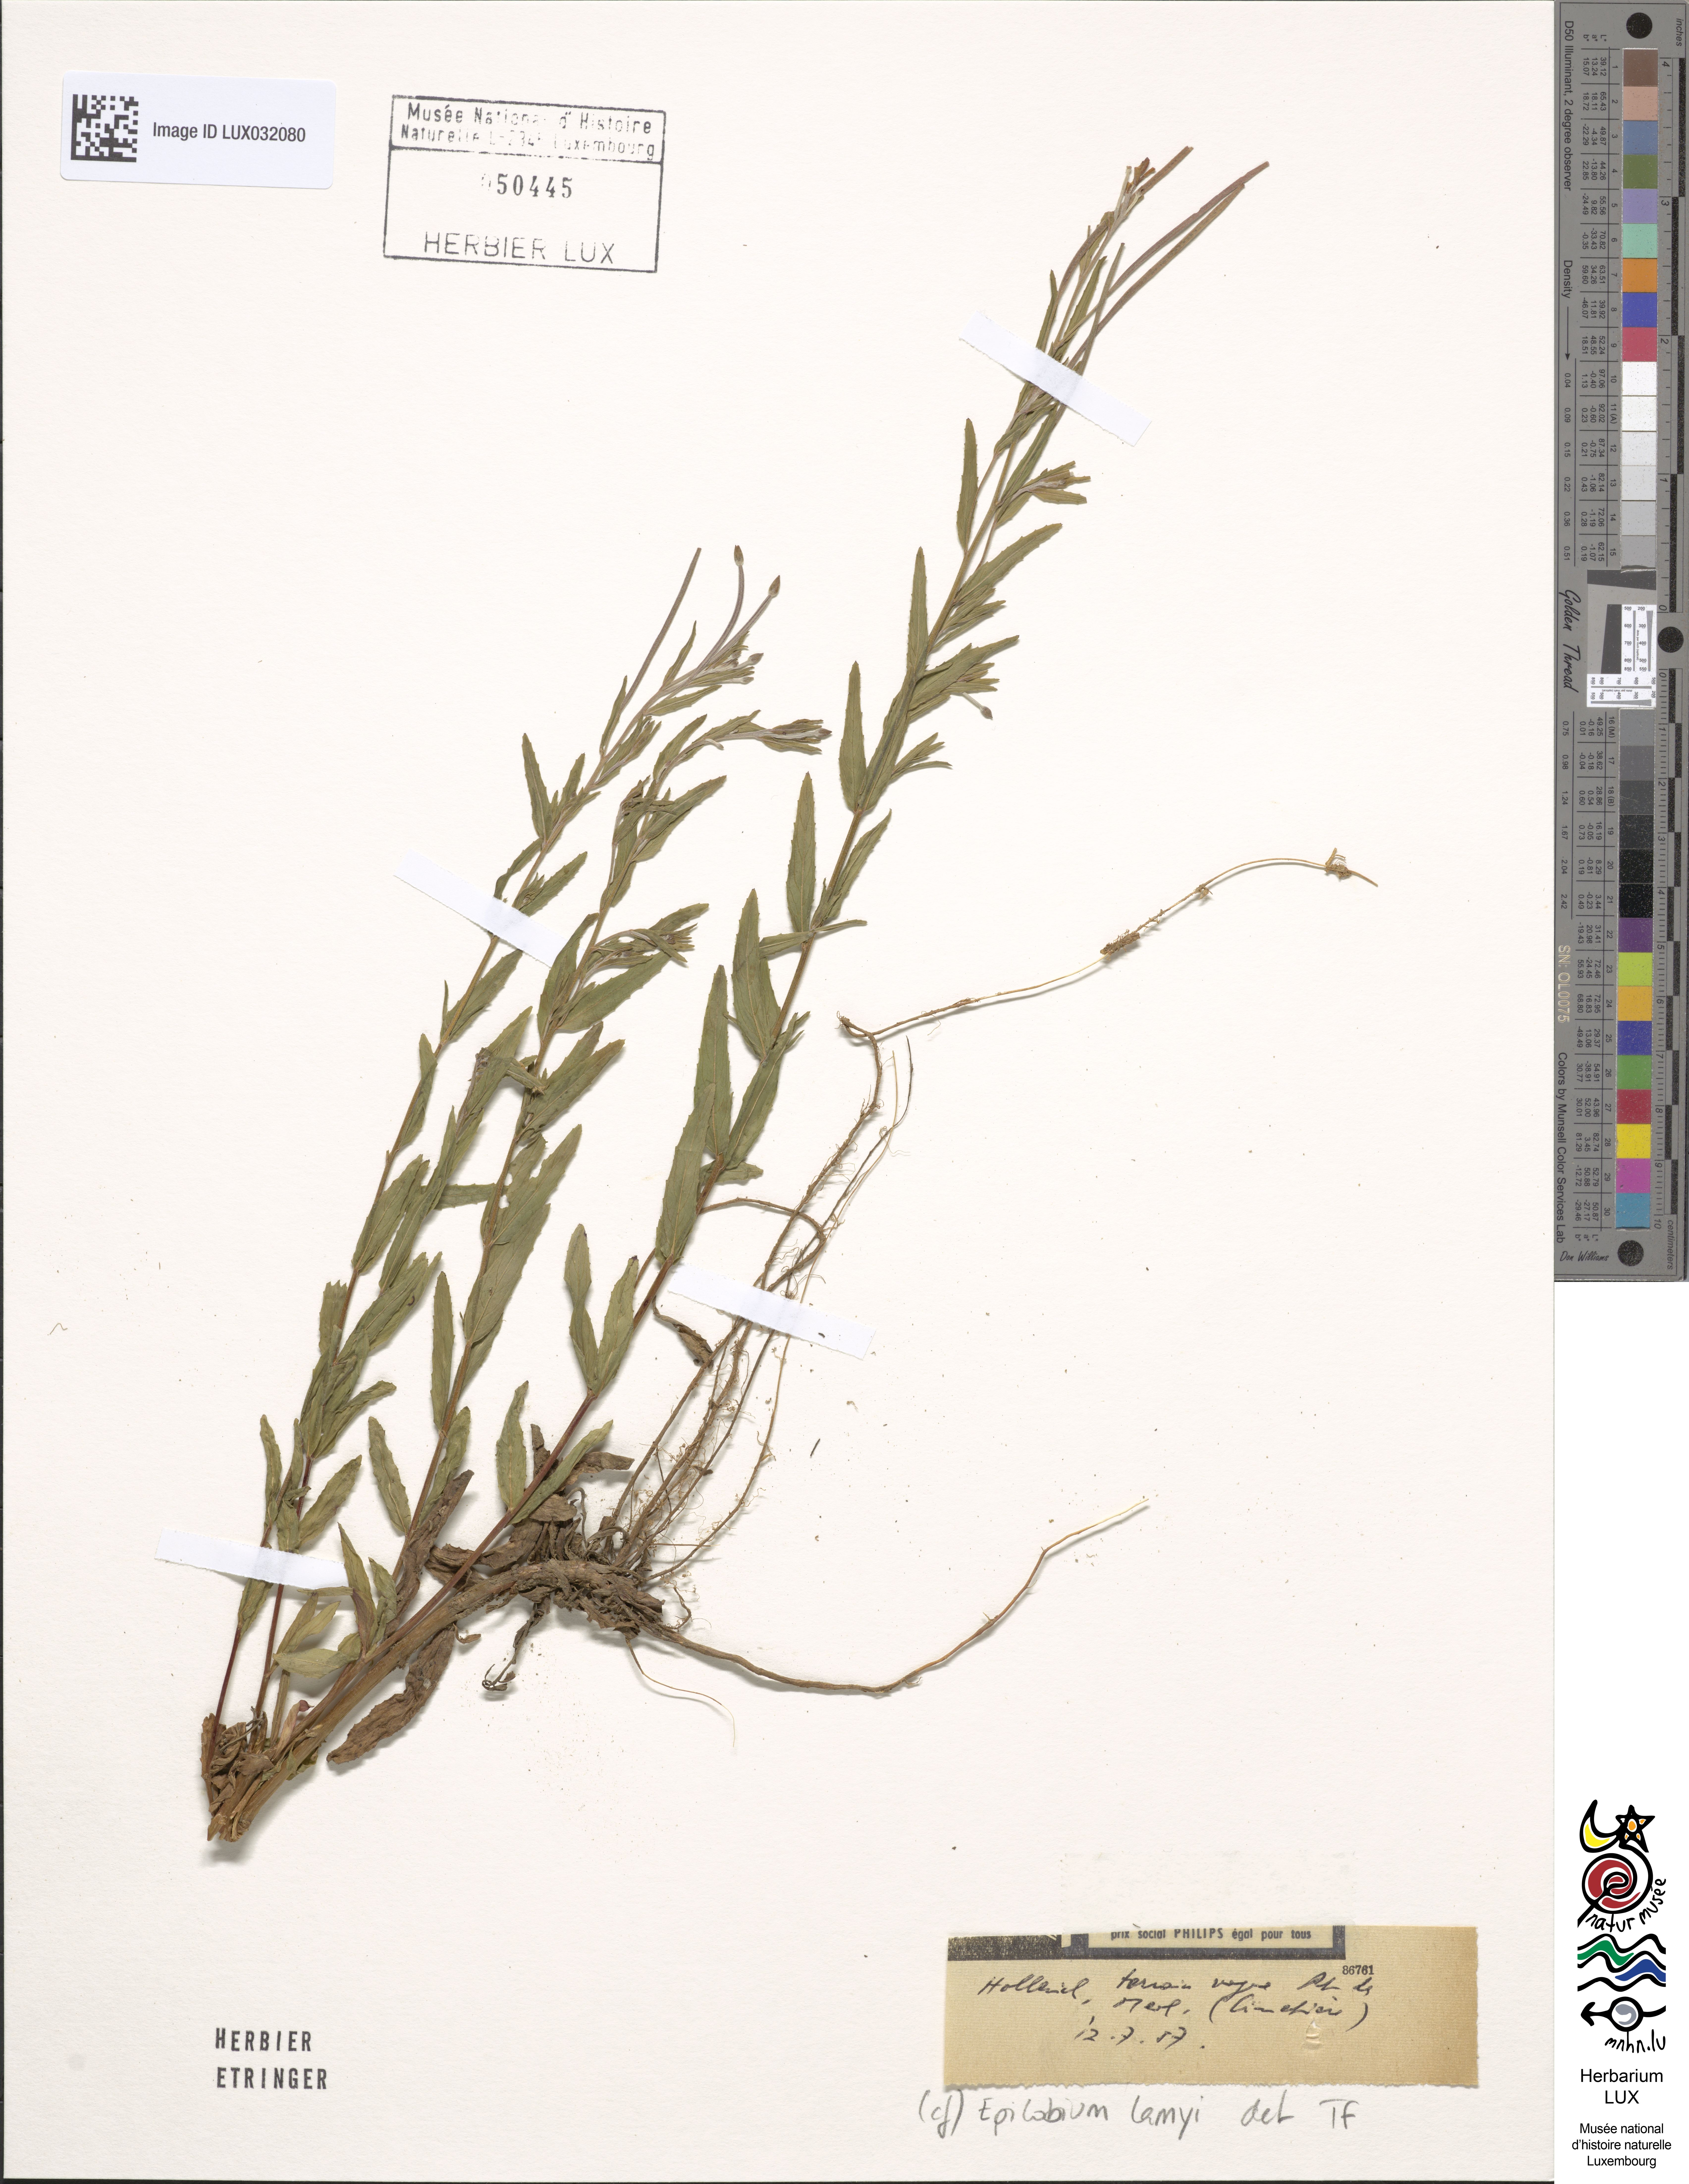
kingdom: Plantae
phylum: Tracheophyta
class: Magnoliopsida
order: Myrtales
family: Onagraceae
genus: Epilobium
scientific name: Epilobium lamyi
